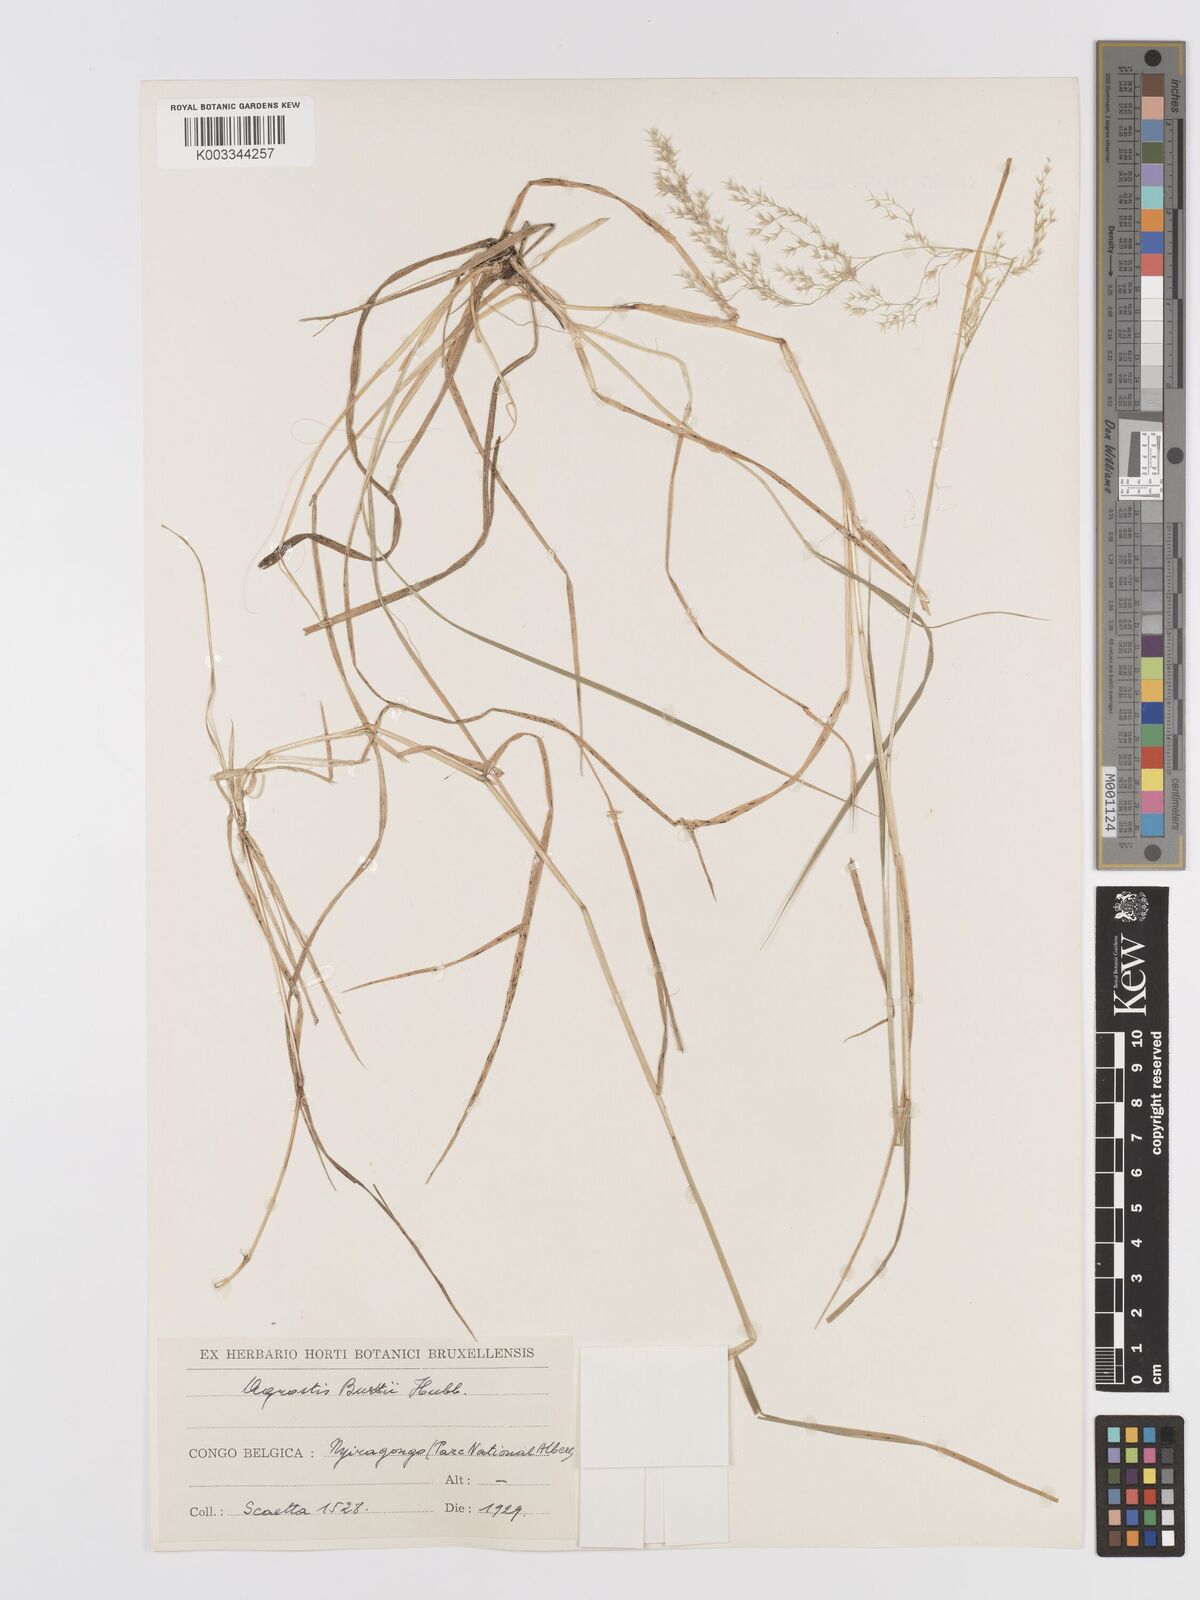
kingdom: Plantae
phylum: Tracheophyta
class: Liliopsida
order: Poales
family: Poaceae
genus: Agrostis
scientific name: Agrostis kilimandscharica
